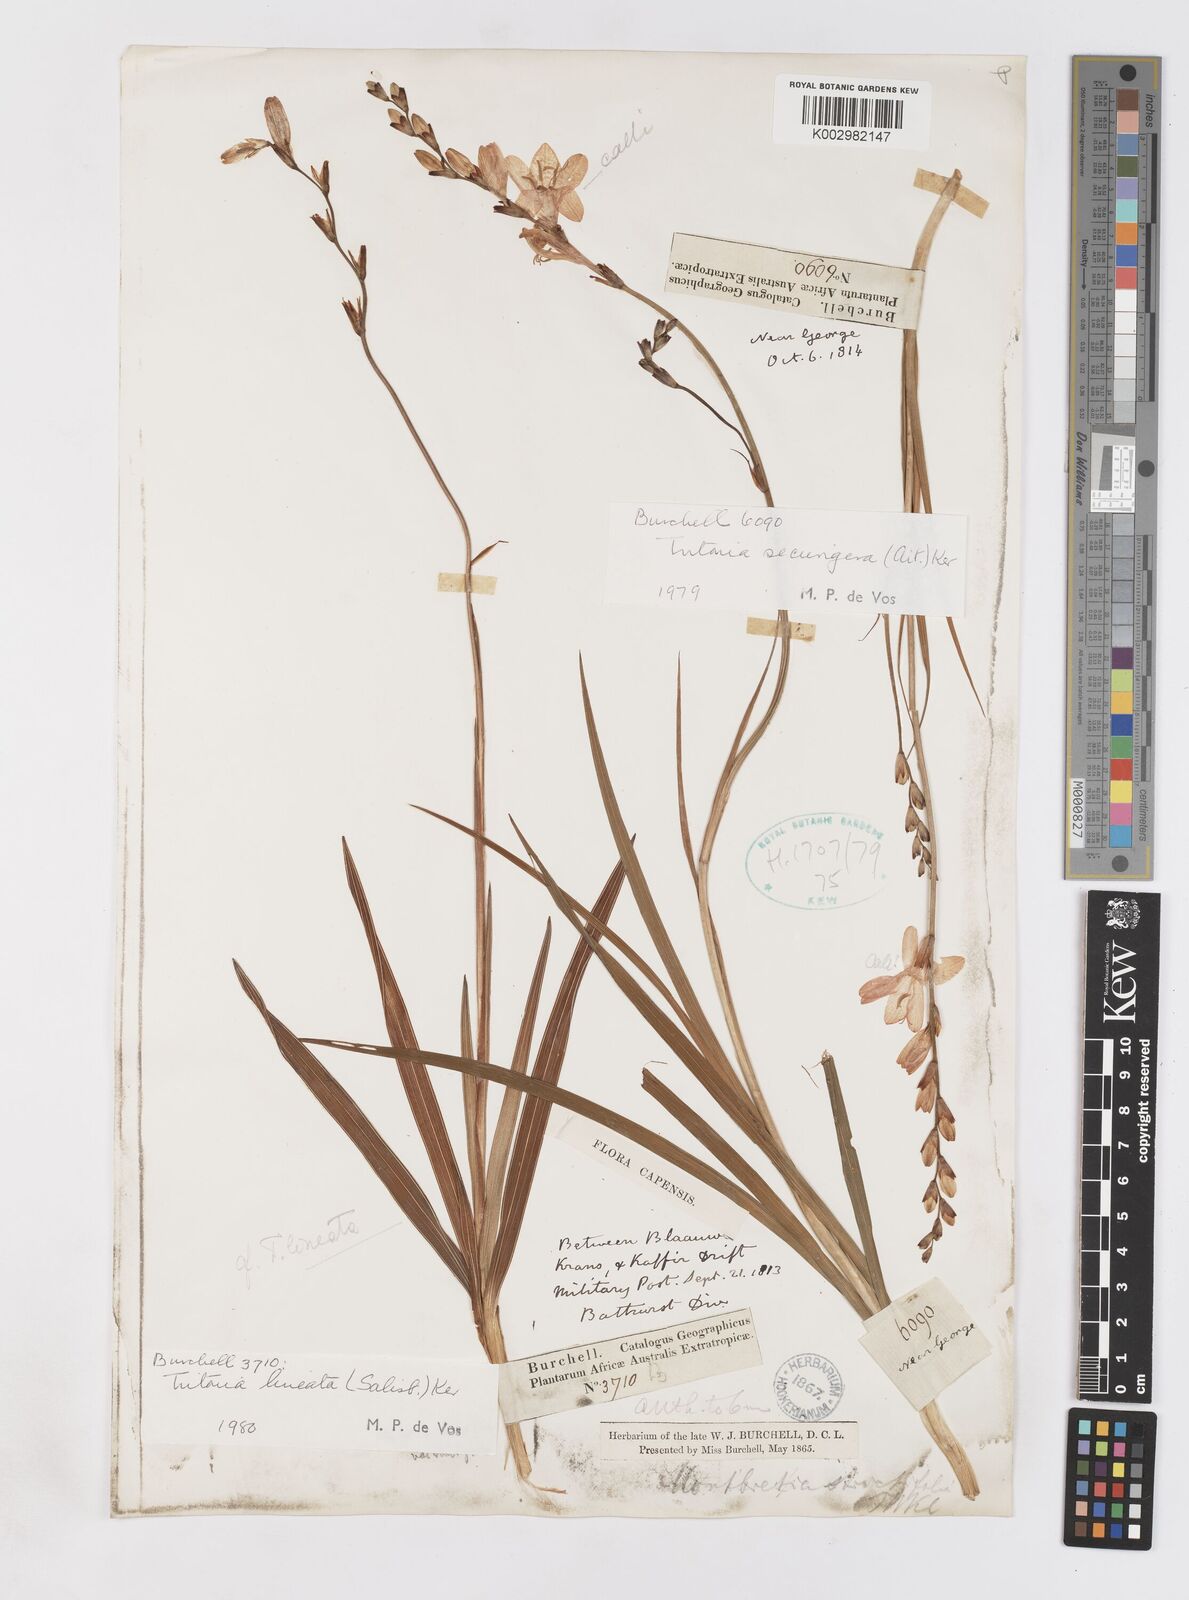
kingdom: Plantae
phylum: Tracheophyta
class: Liliopsida
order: Asparagales
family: Iridaceae
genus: Tritonia
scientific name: Tritonia securigera
